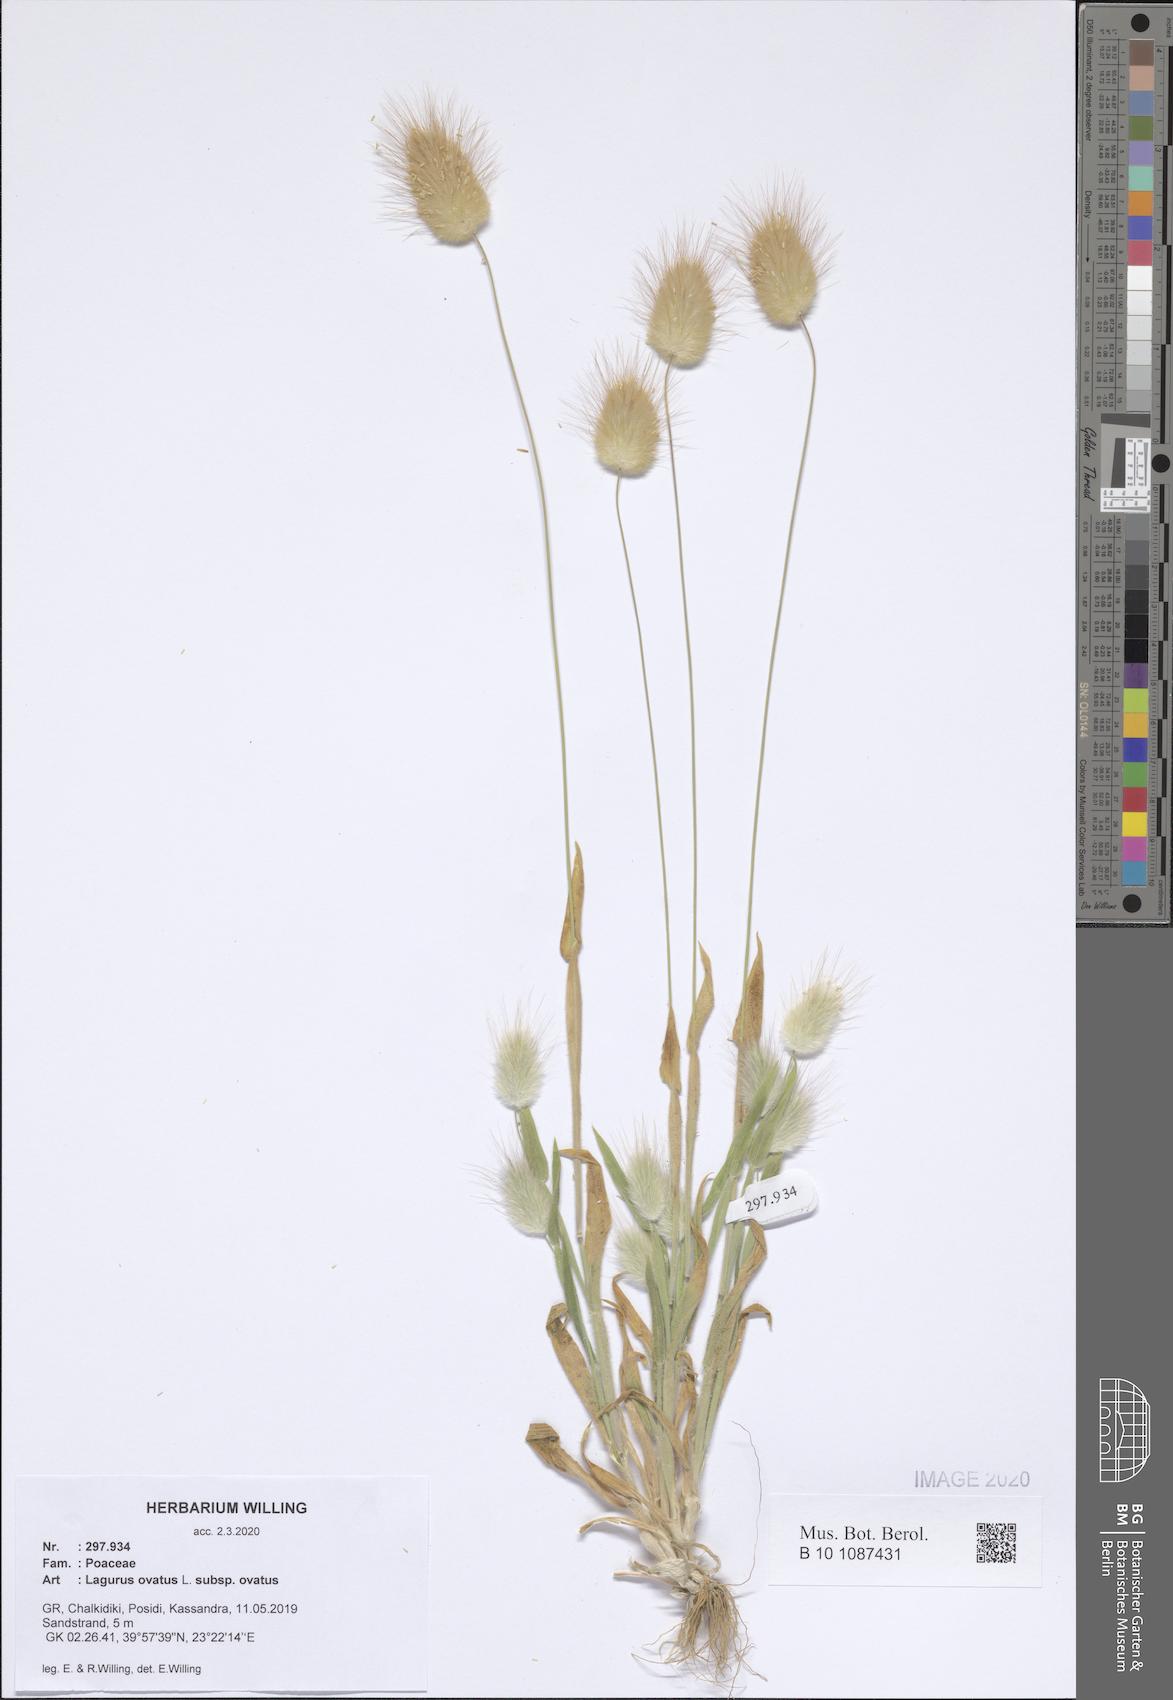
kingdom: Plantae
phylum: Tracheophyta
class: Liliopsida
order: Poales
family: Poaceae
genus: Lagurus
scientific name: Lagurus ovatus
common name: Hare's-tail
